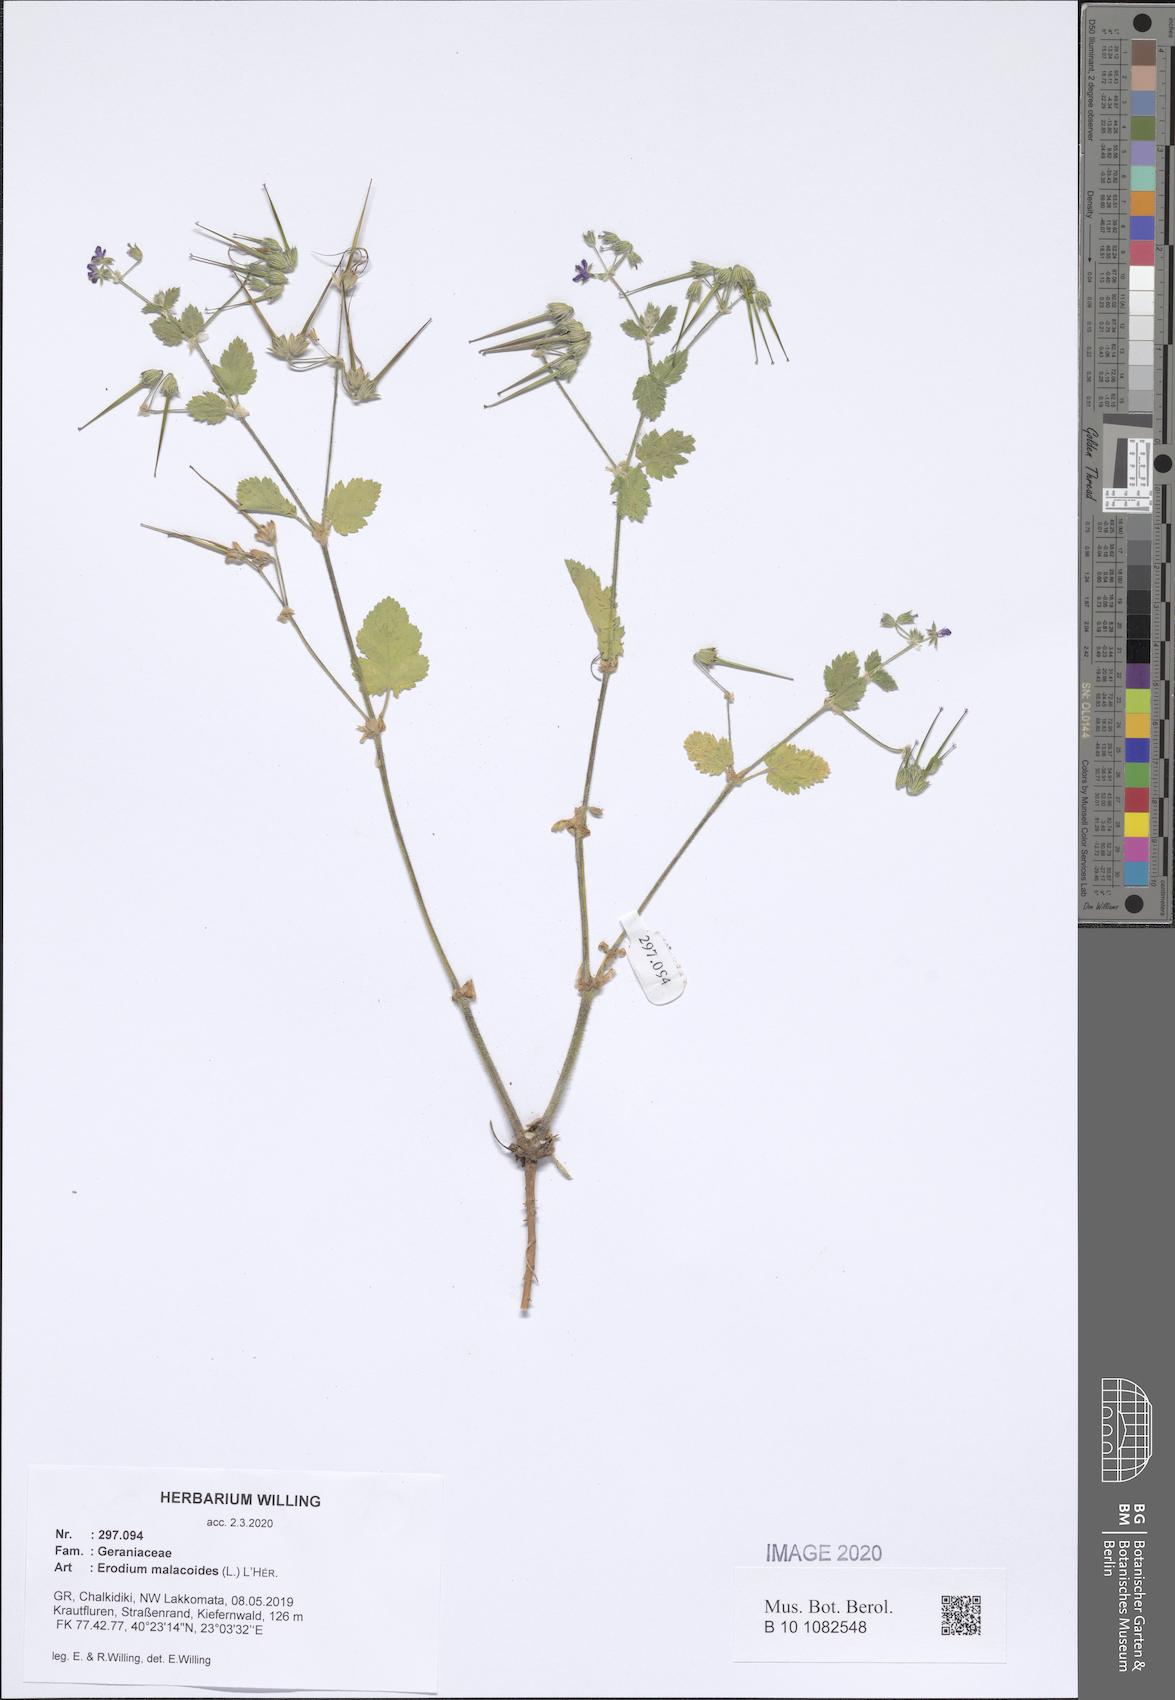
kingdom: Plantae
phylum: Tracheophyta
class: Magnoliopsida
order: Geraniales
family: Geraniaceae
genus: Erodium
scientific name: Erodium malacoides
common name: Soft stork's-bill
